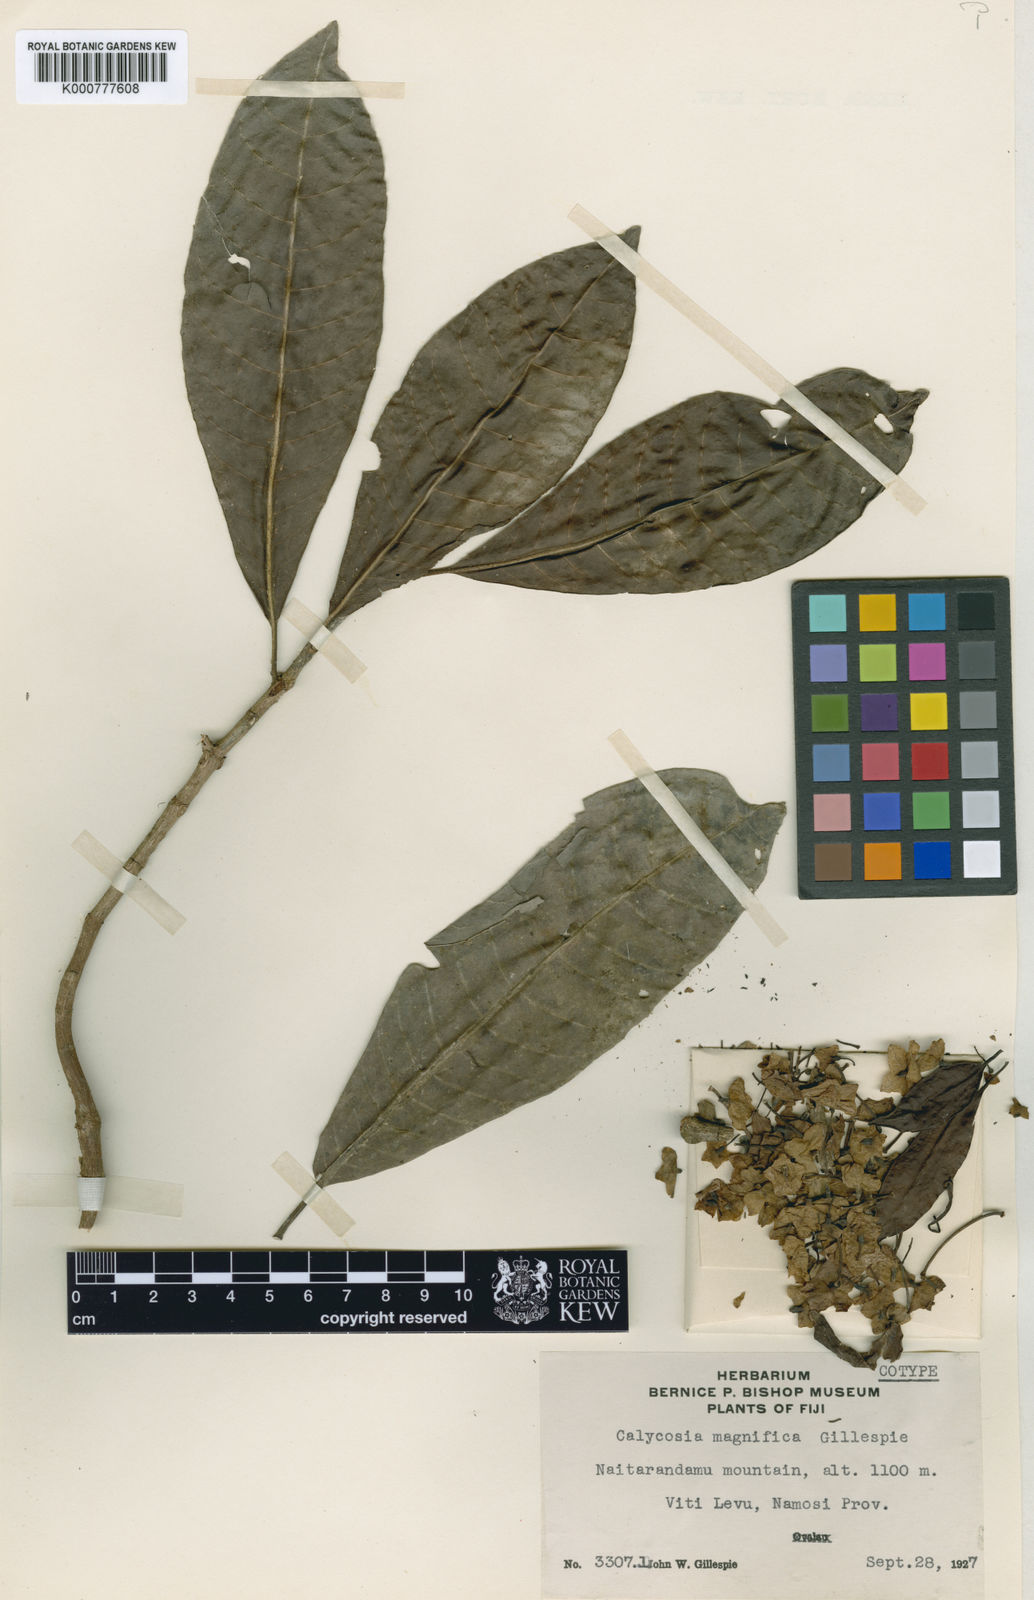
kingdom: Plantae
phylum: Tracheophyta
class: Magnoliopsida
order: Gentianales
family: Rubiaceae
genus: Psychotria
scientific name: Psychotria magnifica
